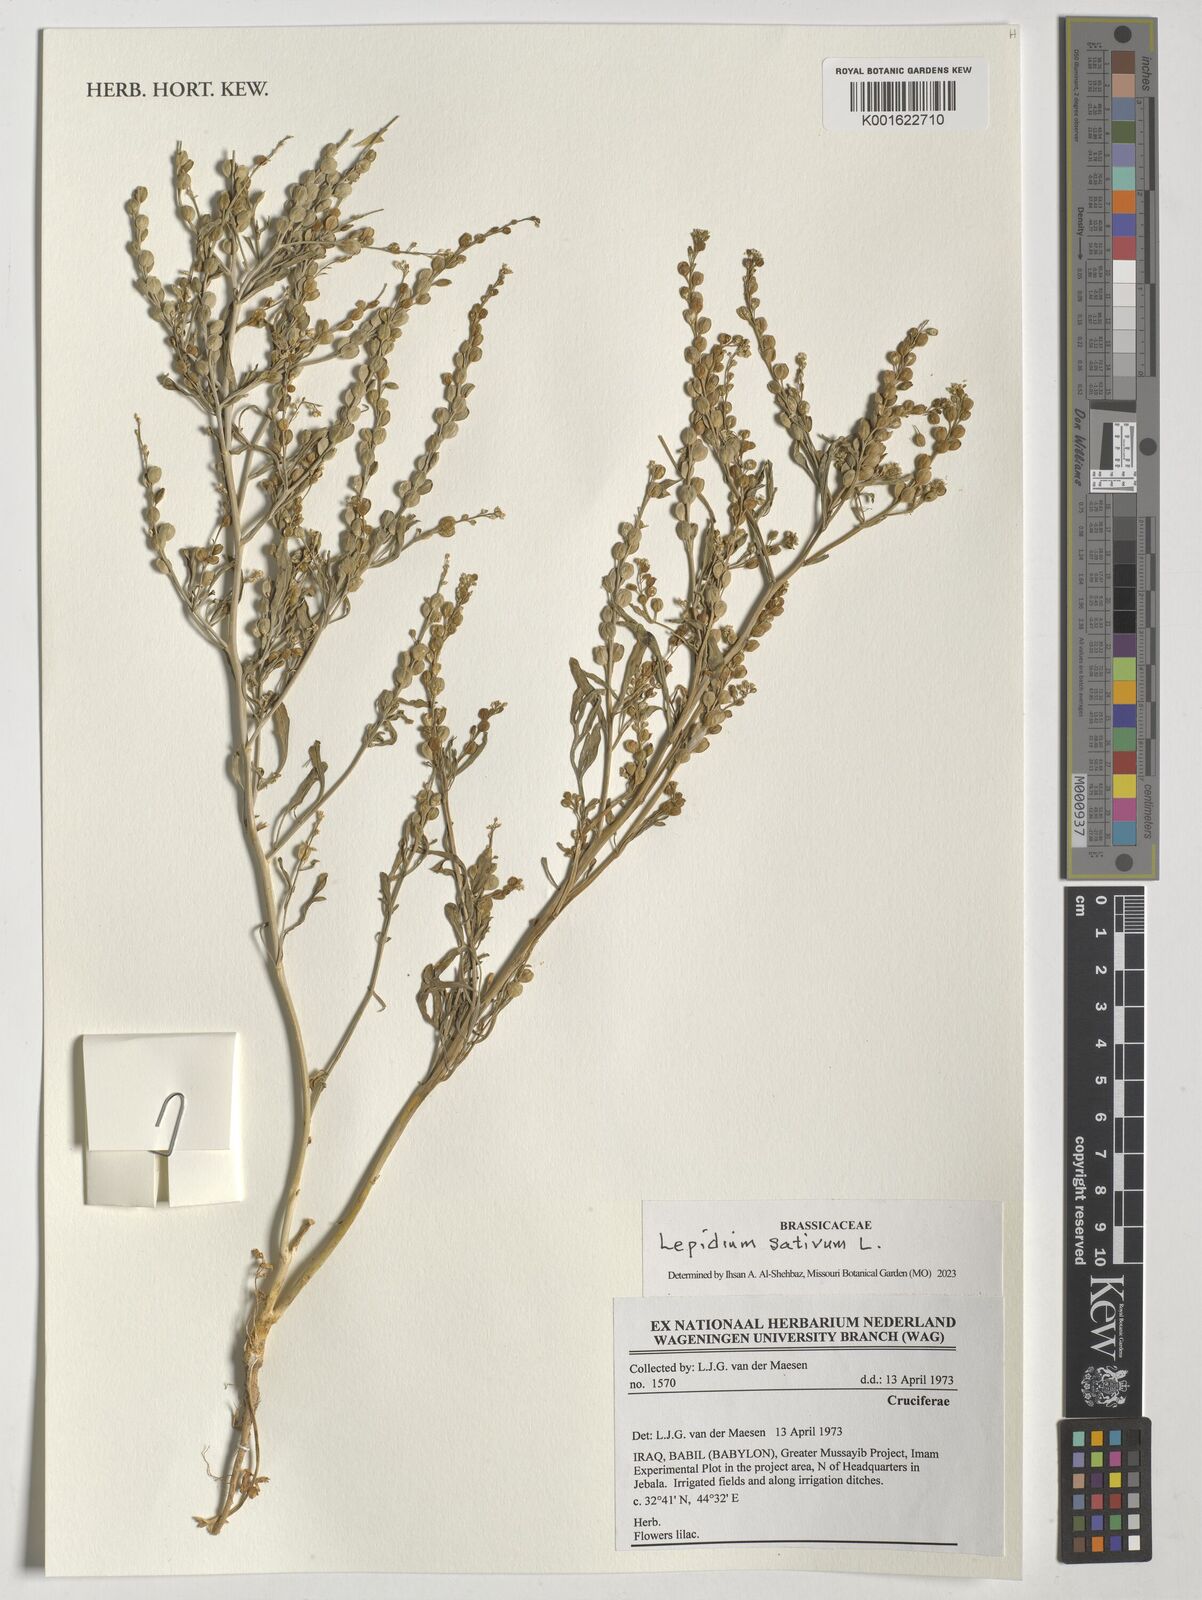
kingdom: Plantae
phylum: Tracheophyta
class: Magnoliopsida
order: Brassicales
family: Brassicaceae
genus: Lepidium
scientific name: Lepidium sativum
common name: Garden cress
